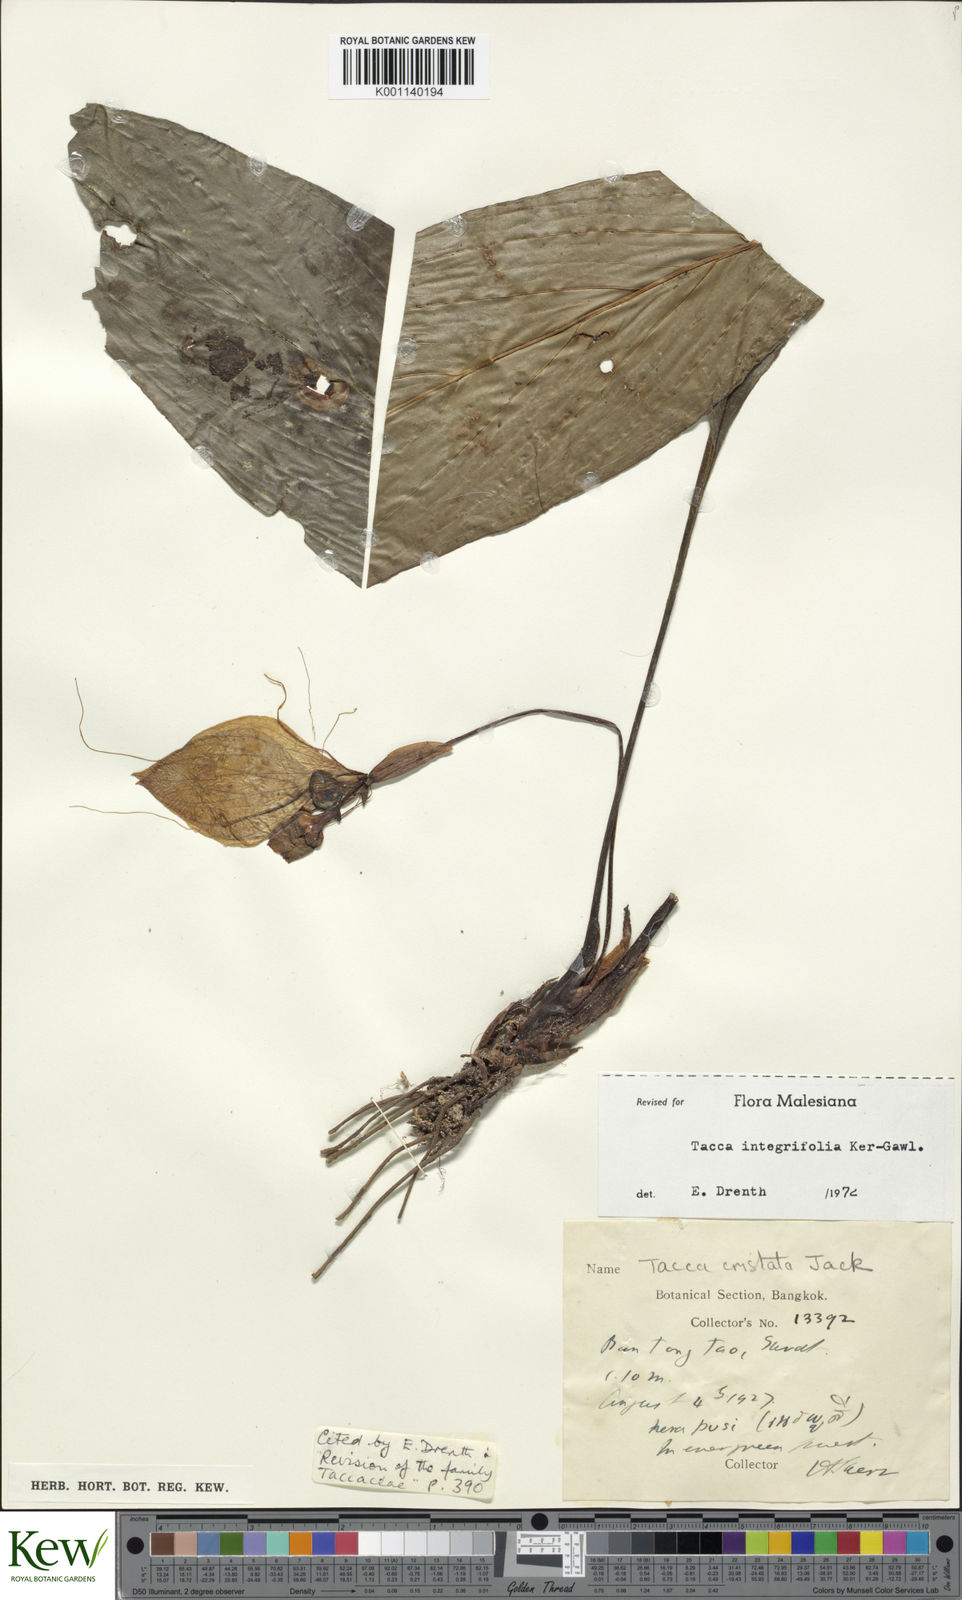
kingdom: Plantae
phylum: Tracheophyta
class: Liliopsida
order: Dioscoreales
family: Dioscoreaceae
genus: Tacca
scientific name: Tacca integrifolia
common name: Batplant
